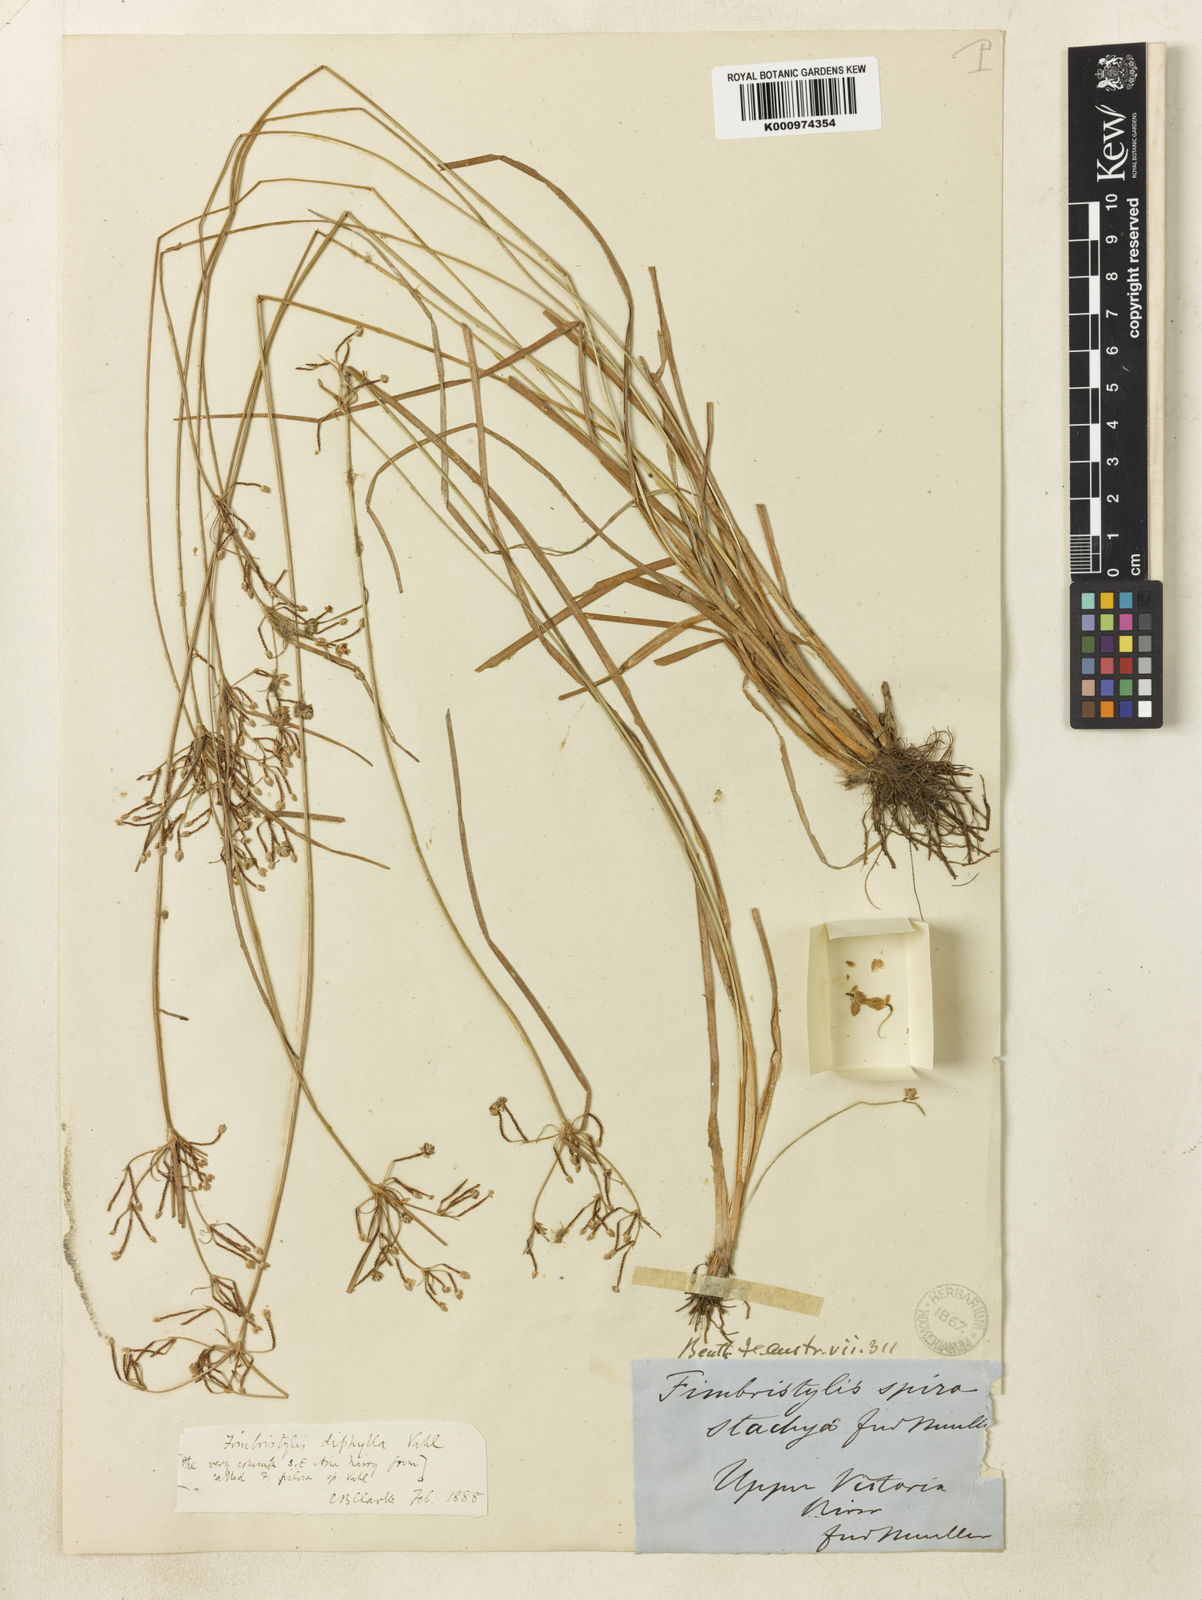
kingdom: Plantae
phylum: Tracheophyta
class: Liliopsida
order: Poales
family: Cyperaceae
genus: Fimbristylis
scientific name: Fimbristylis dichotoma
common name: Forked fimbry
